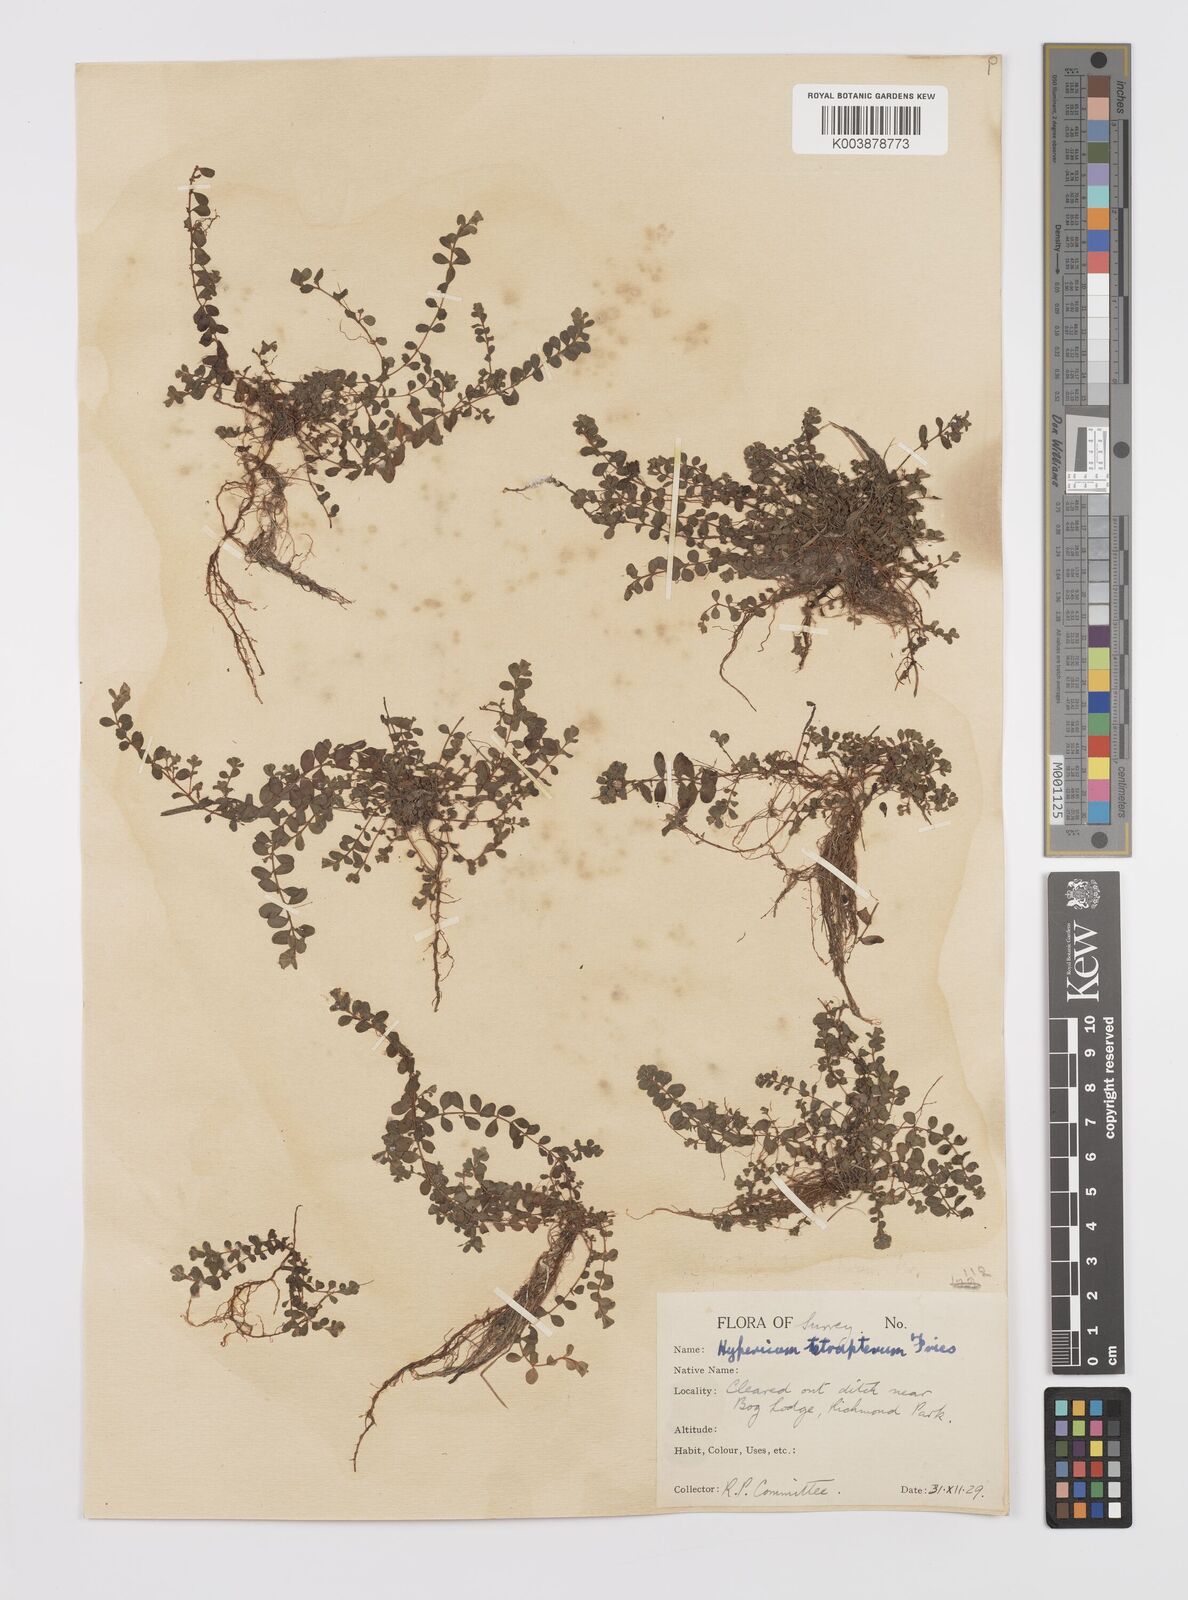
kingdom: Plantae
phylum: Tracheophyta
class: Magnoliopsida
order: Malpighiales
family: Hypericaceae
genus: Hypericum
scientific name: Hypericum tetrapterum
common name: Square-stalked st. john's-wort
